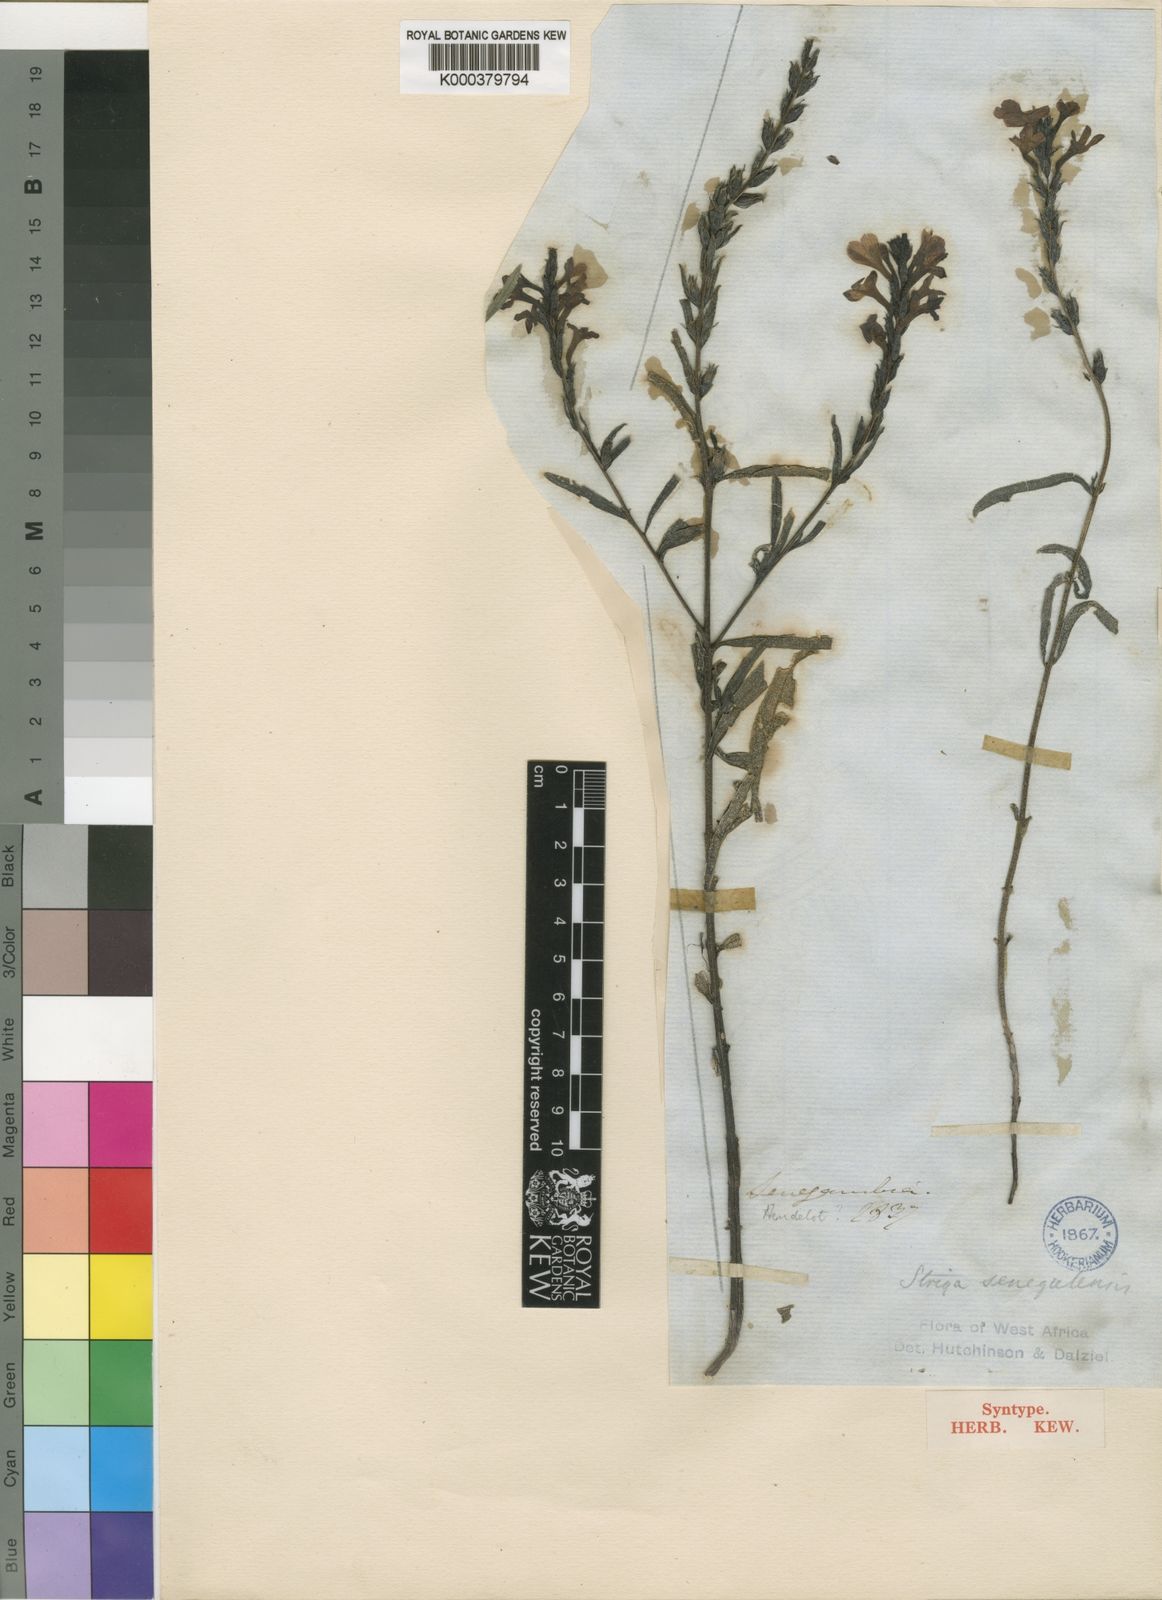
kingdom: Plantae
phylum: Tracheophyta
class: Magnoliopsida
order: Lamiales
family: Orobanchaceae
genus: Striga
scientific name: Striga hermonthica
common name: Purple witchweed
